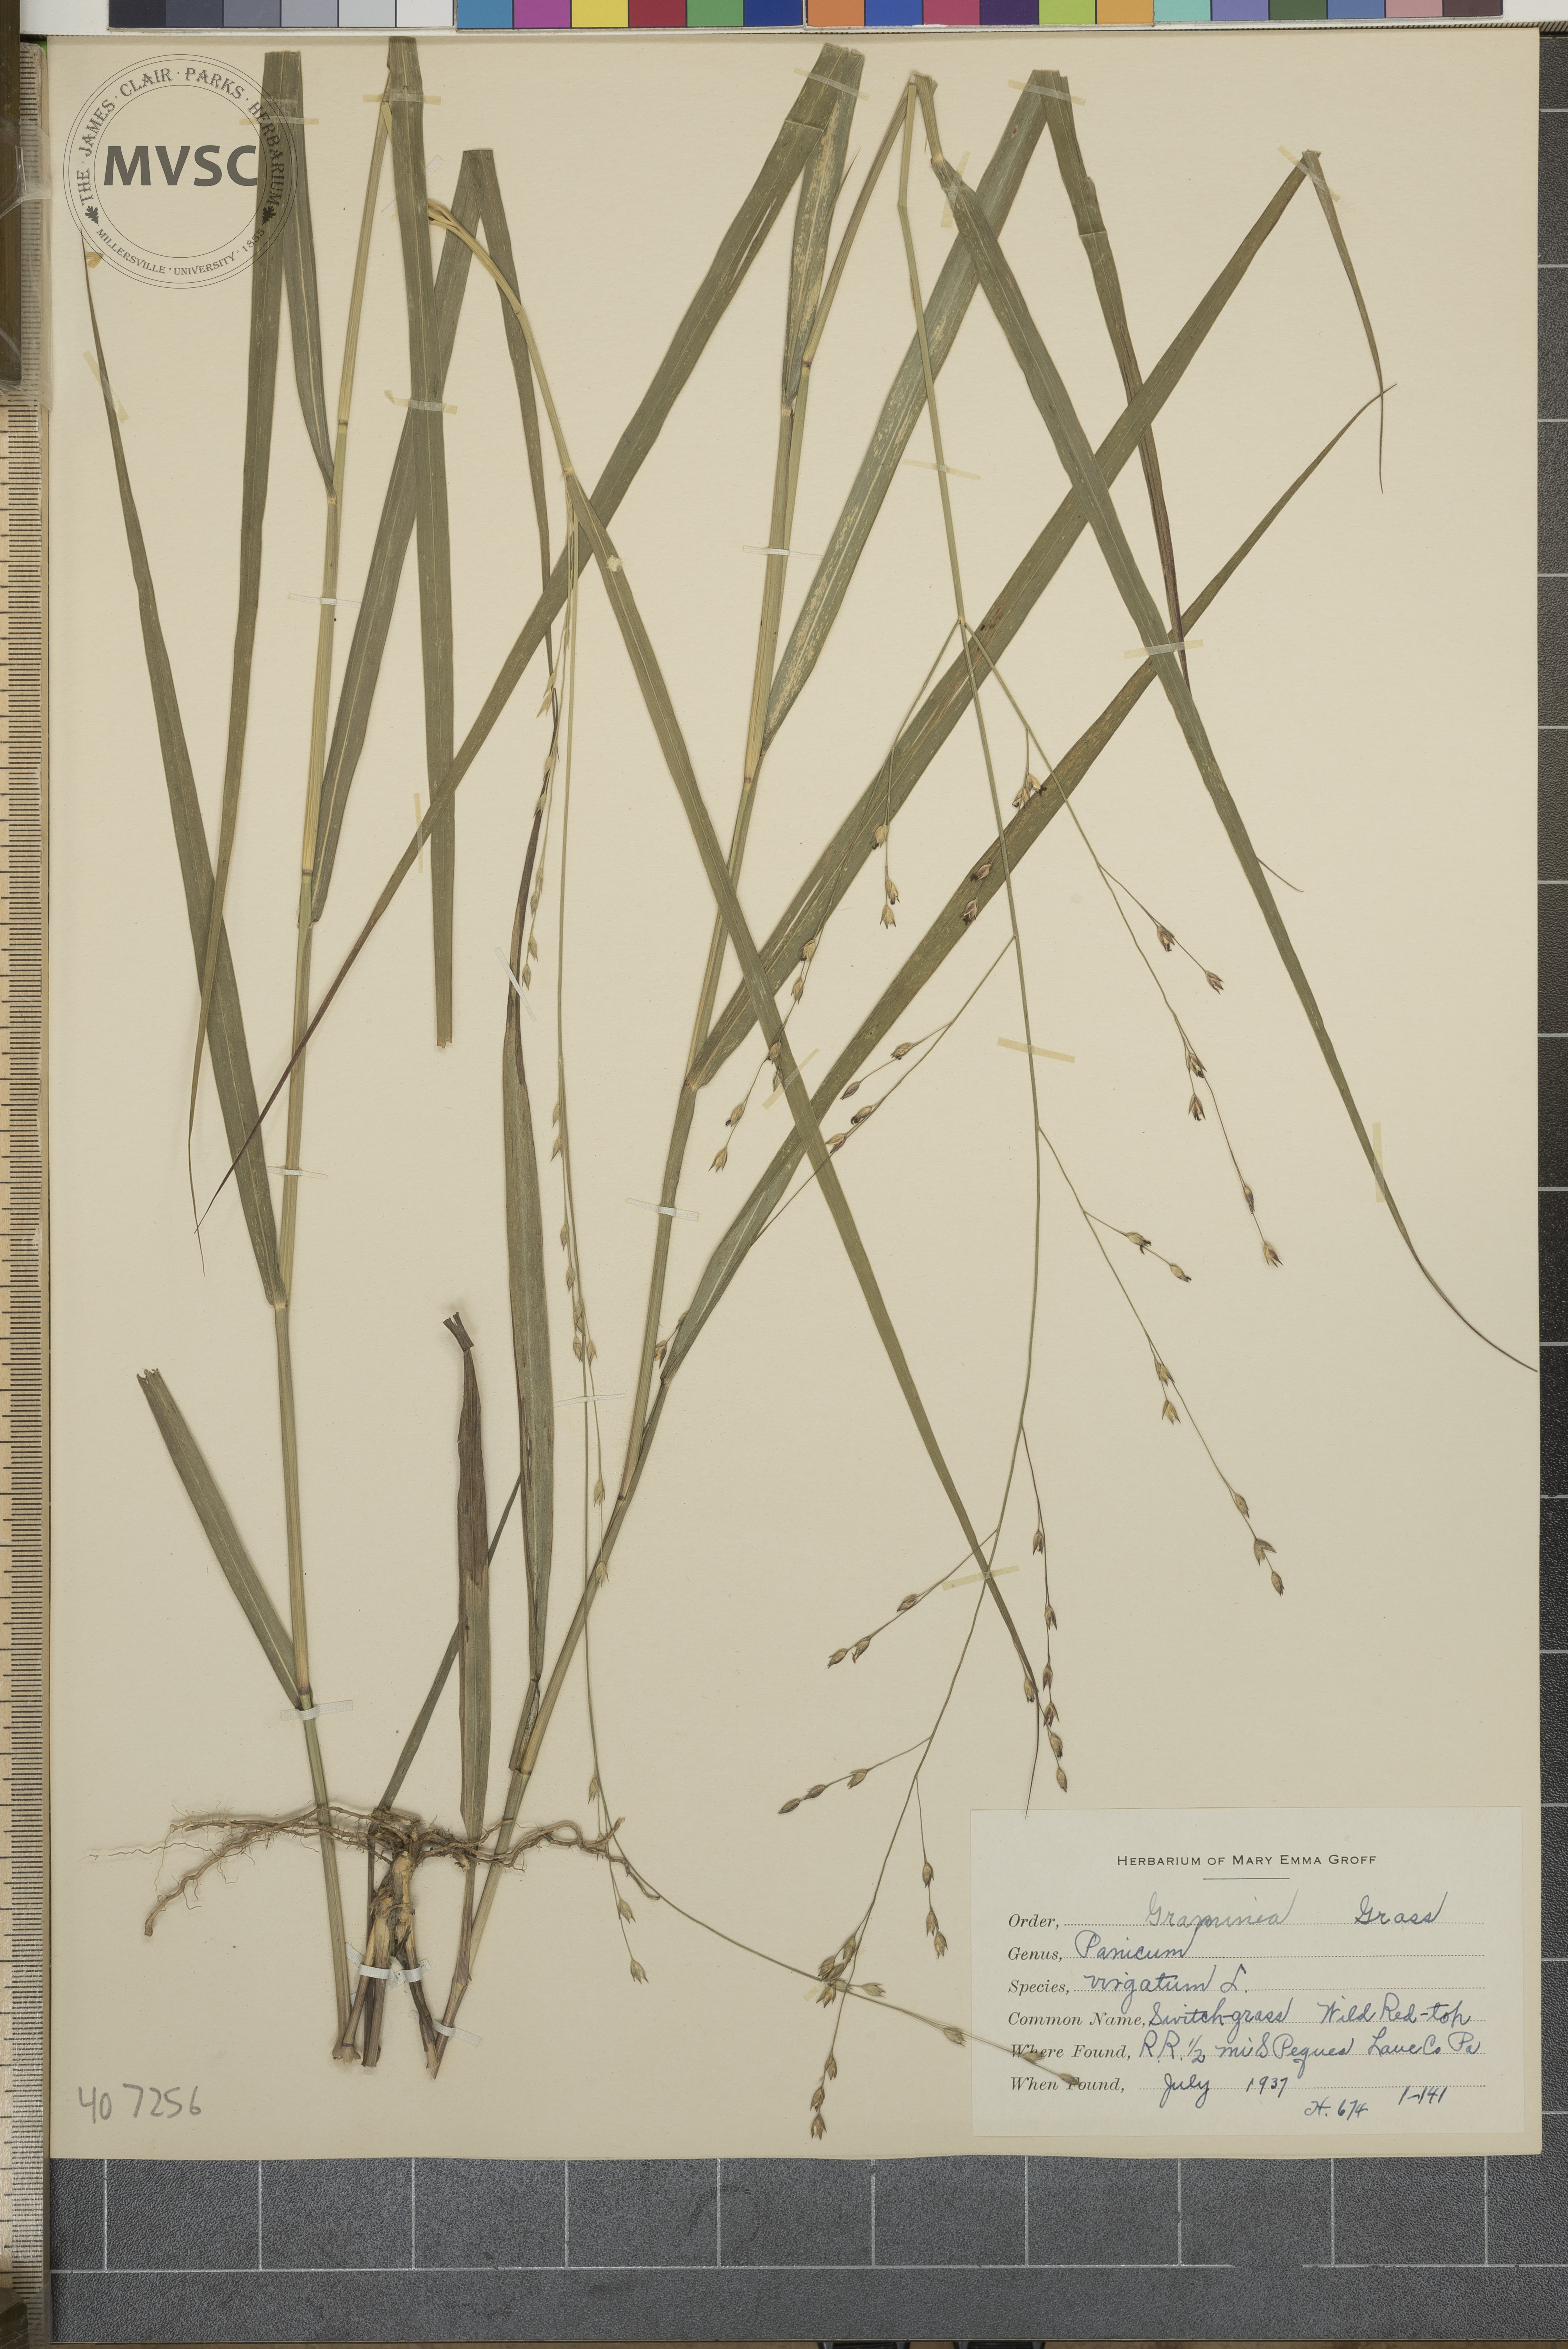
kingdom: Plantae
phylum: Tracheophyta
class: Liliopsida
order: Poales
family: Poaceae
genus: Panicum
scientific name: Panicum virgatum
